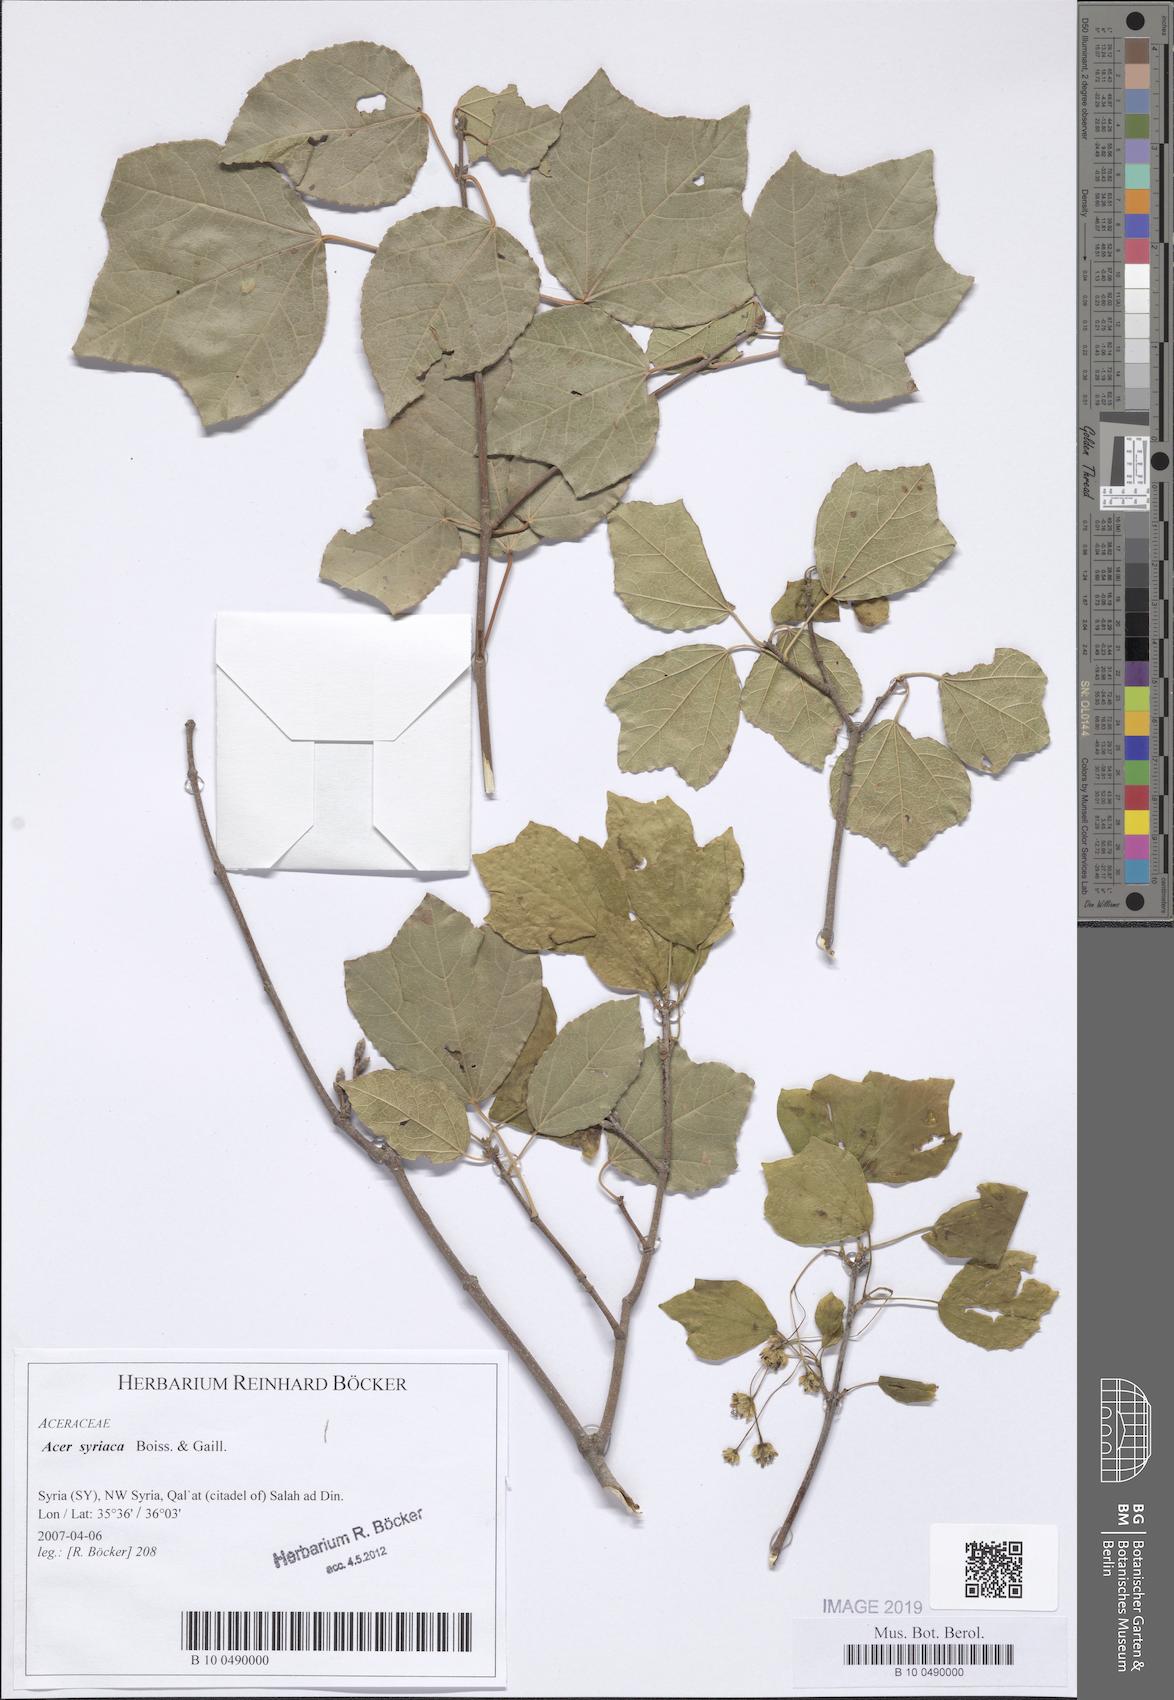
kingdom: Plantae
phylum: Tracheophyta
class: Magnoliopsida
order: Sapindales
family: Sapindaceae
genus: Acer
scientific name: Acer obtusifolium
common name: Cyprus maple
